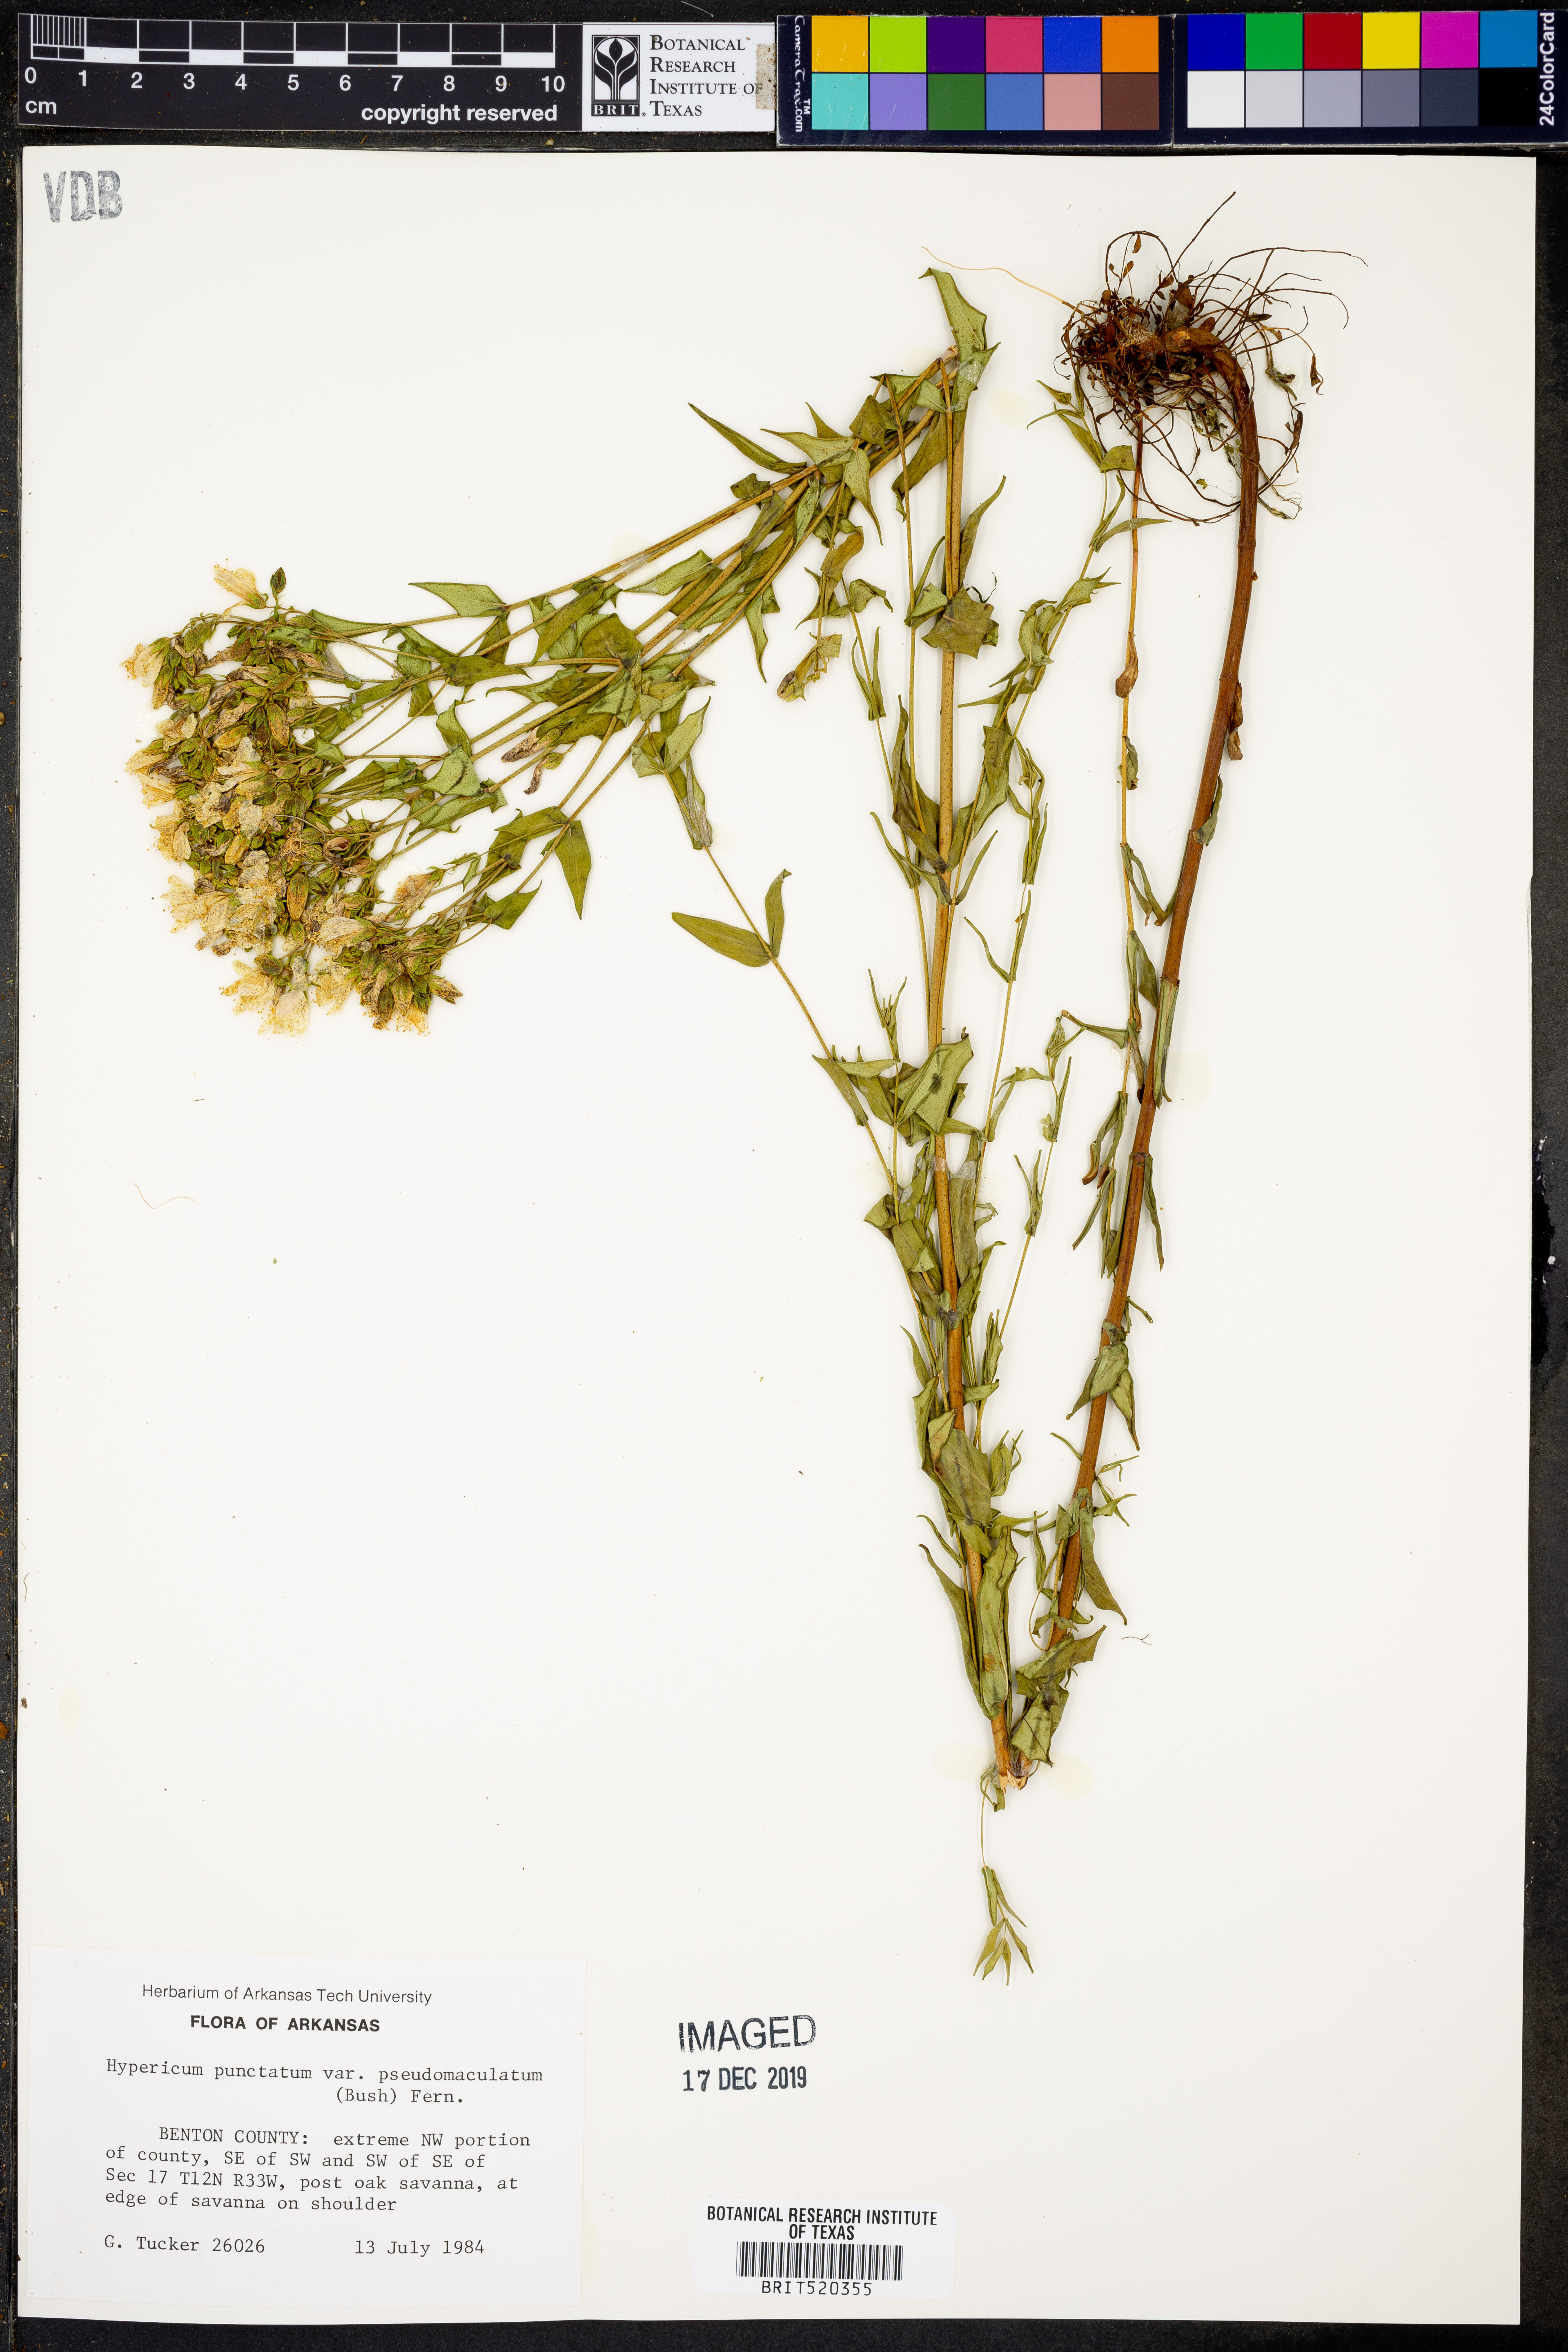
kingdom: Plantae
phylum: Tracheophyta
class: Magnoliopsida
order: Malpighiales
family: Hypericaceae
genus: Hypericum
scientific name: Hypericum pseudomaculatum
